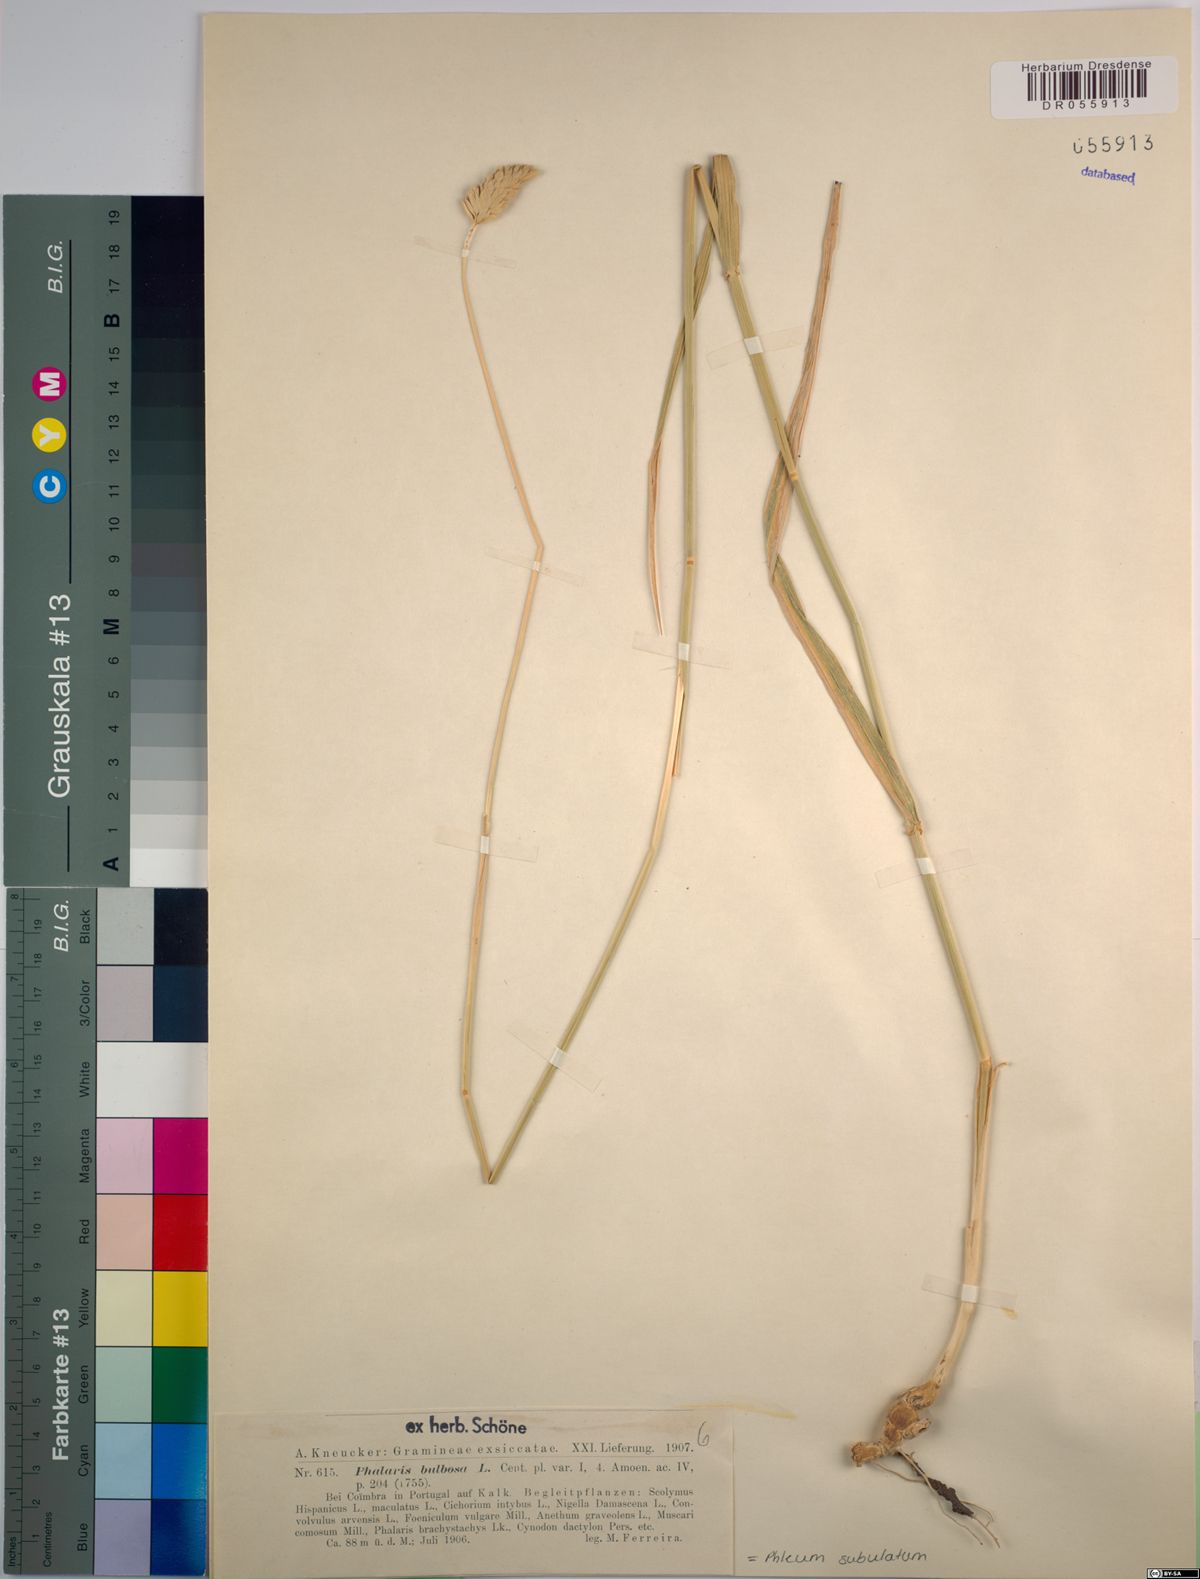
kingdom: Plantae
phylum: Tracheophyta
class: Liliopsida
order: Poales
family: Poaceae
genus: Phleum
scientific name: Phleum subulatum
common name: Italian timothy
